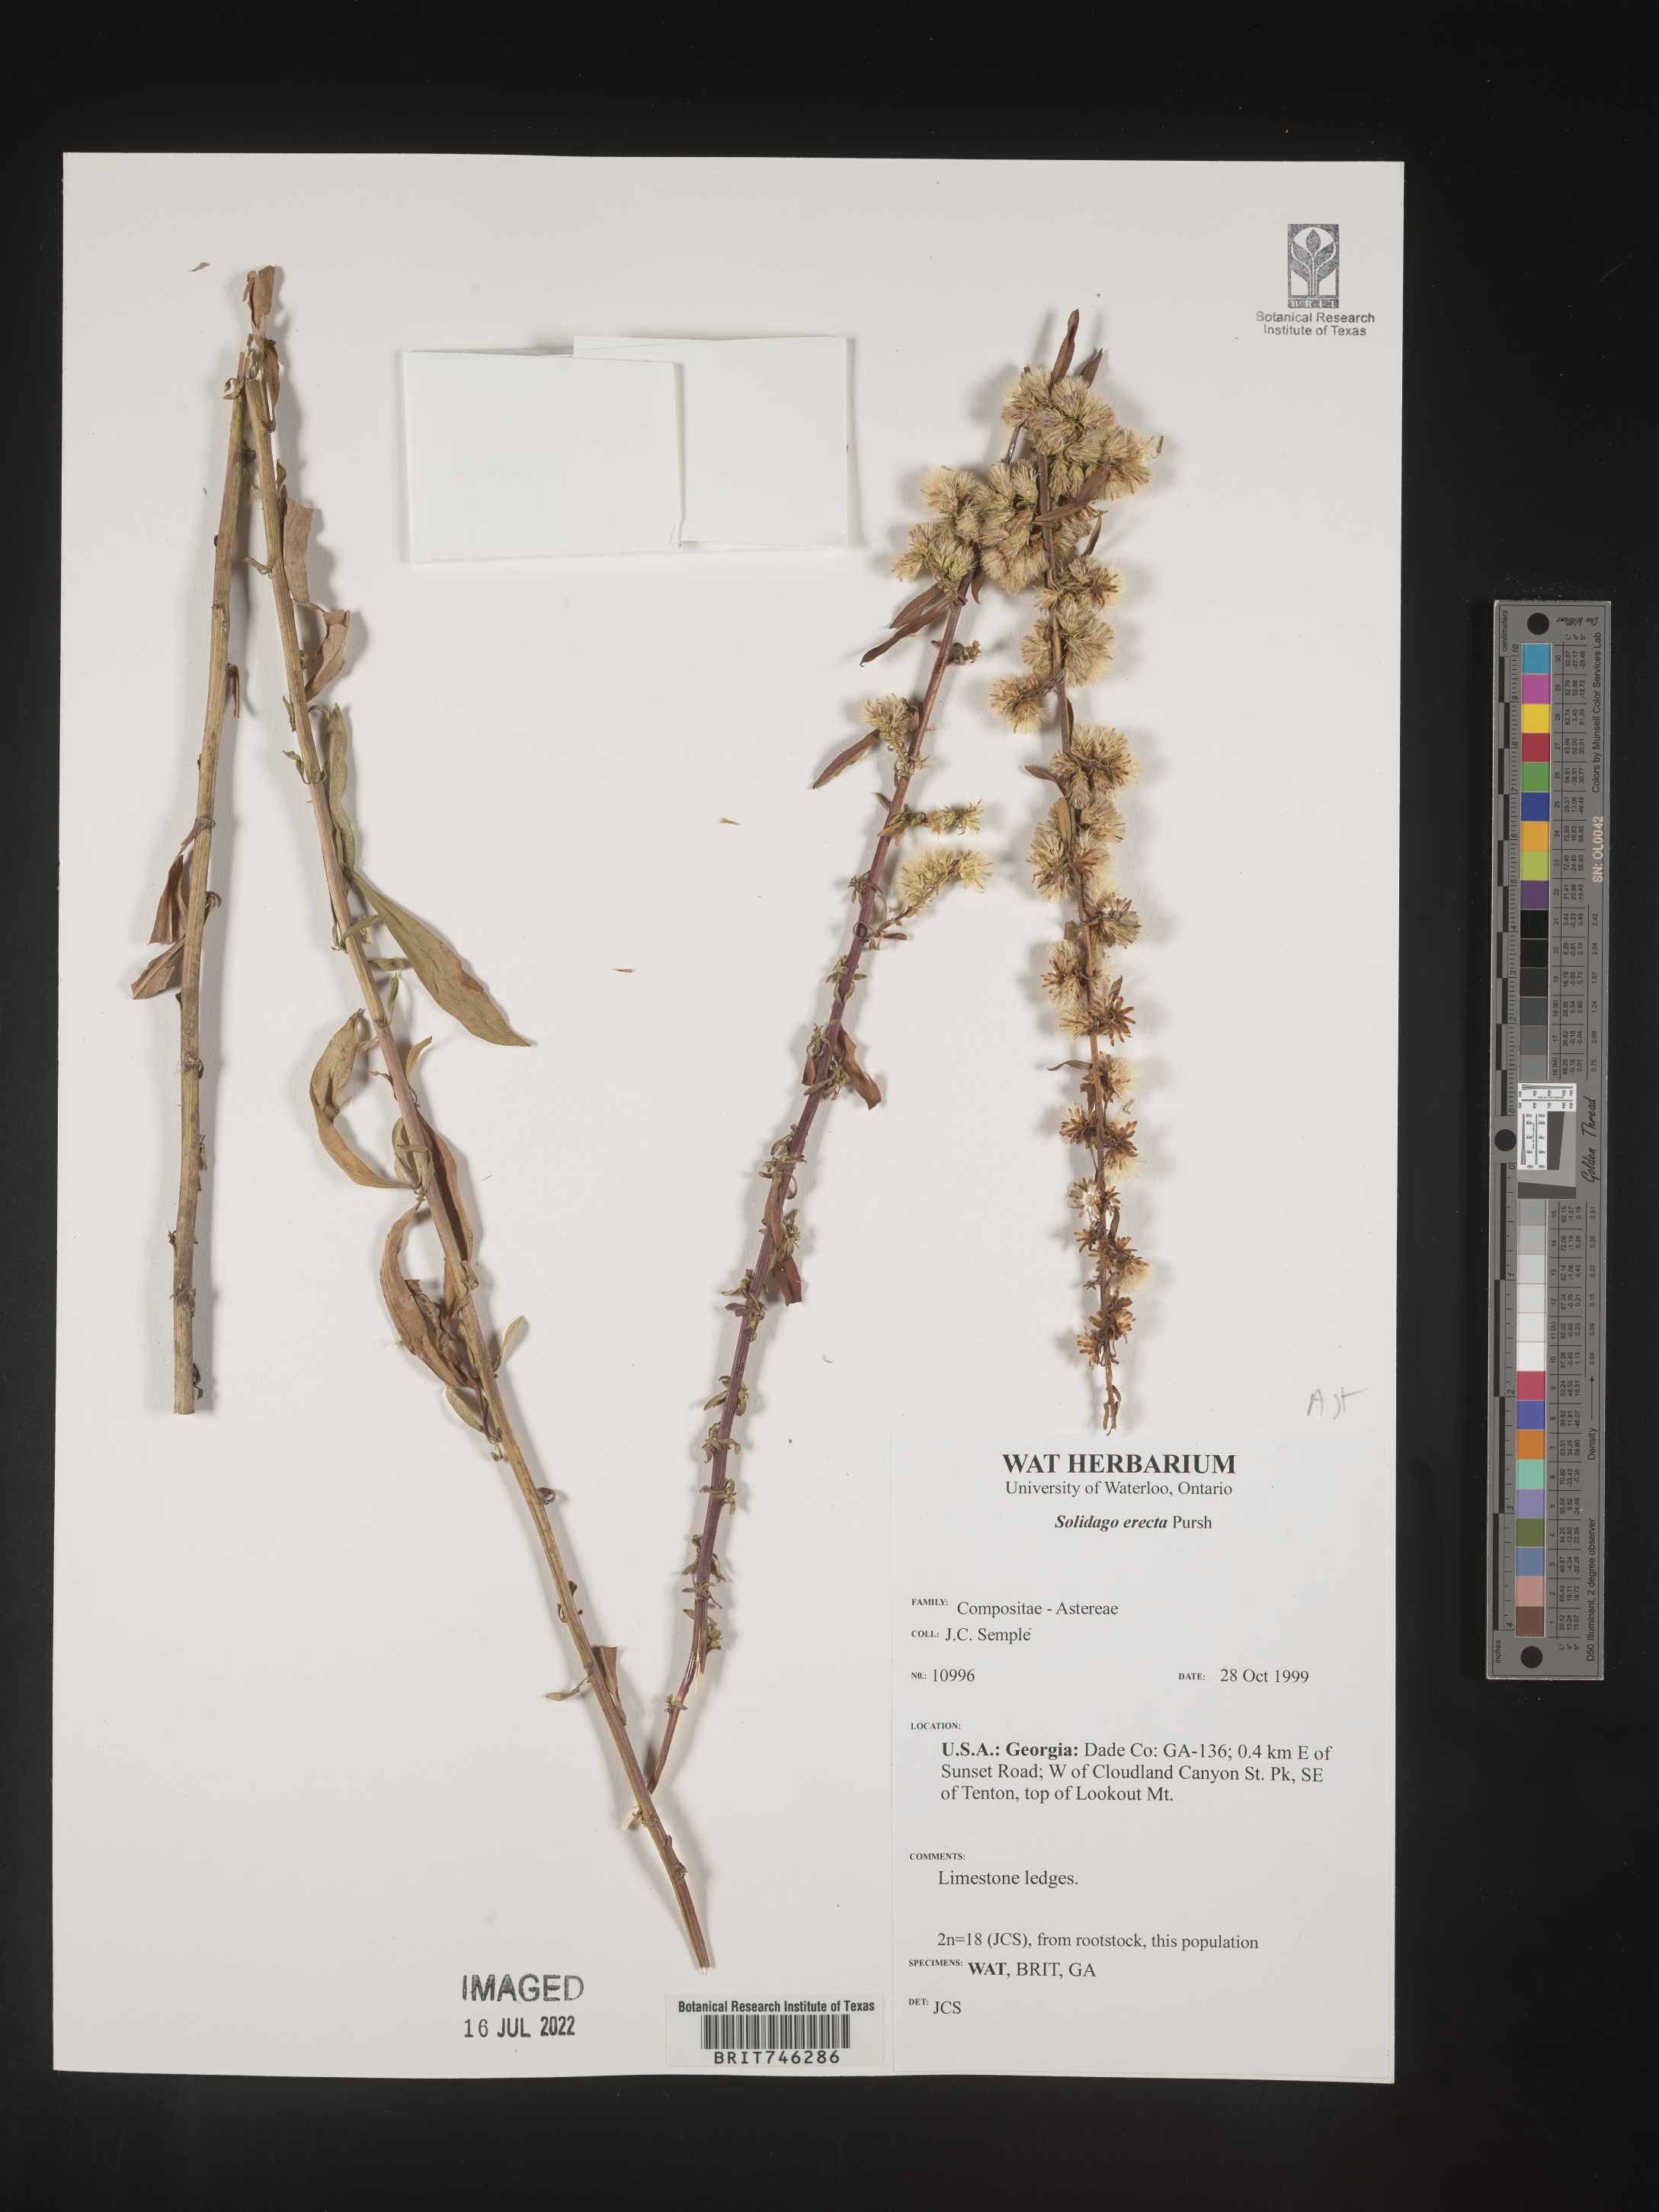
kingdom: Plantae
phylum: Tracheophyta
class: Magnoliopsida
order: Asterales
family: Asteraceae
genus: Solidago
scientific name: Solidago erecta
